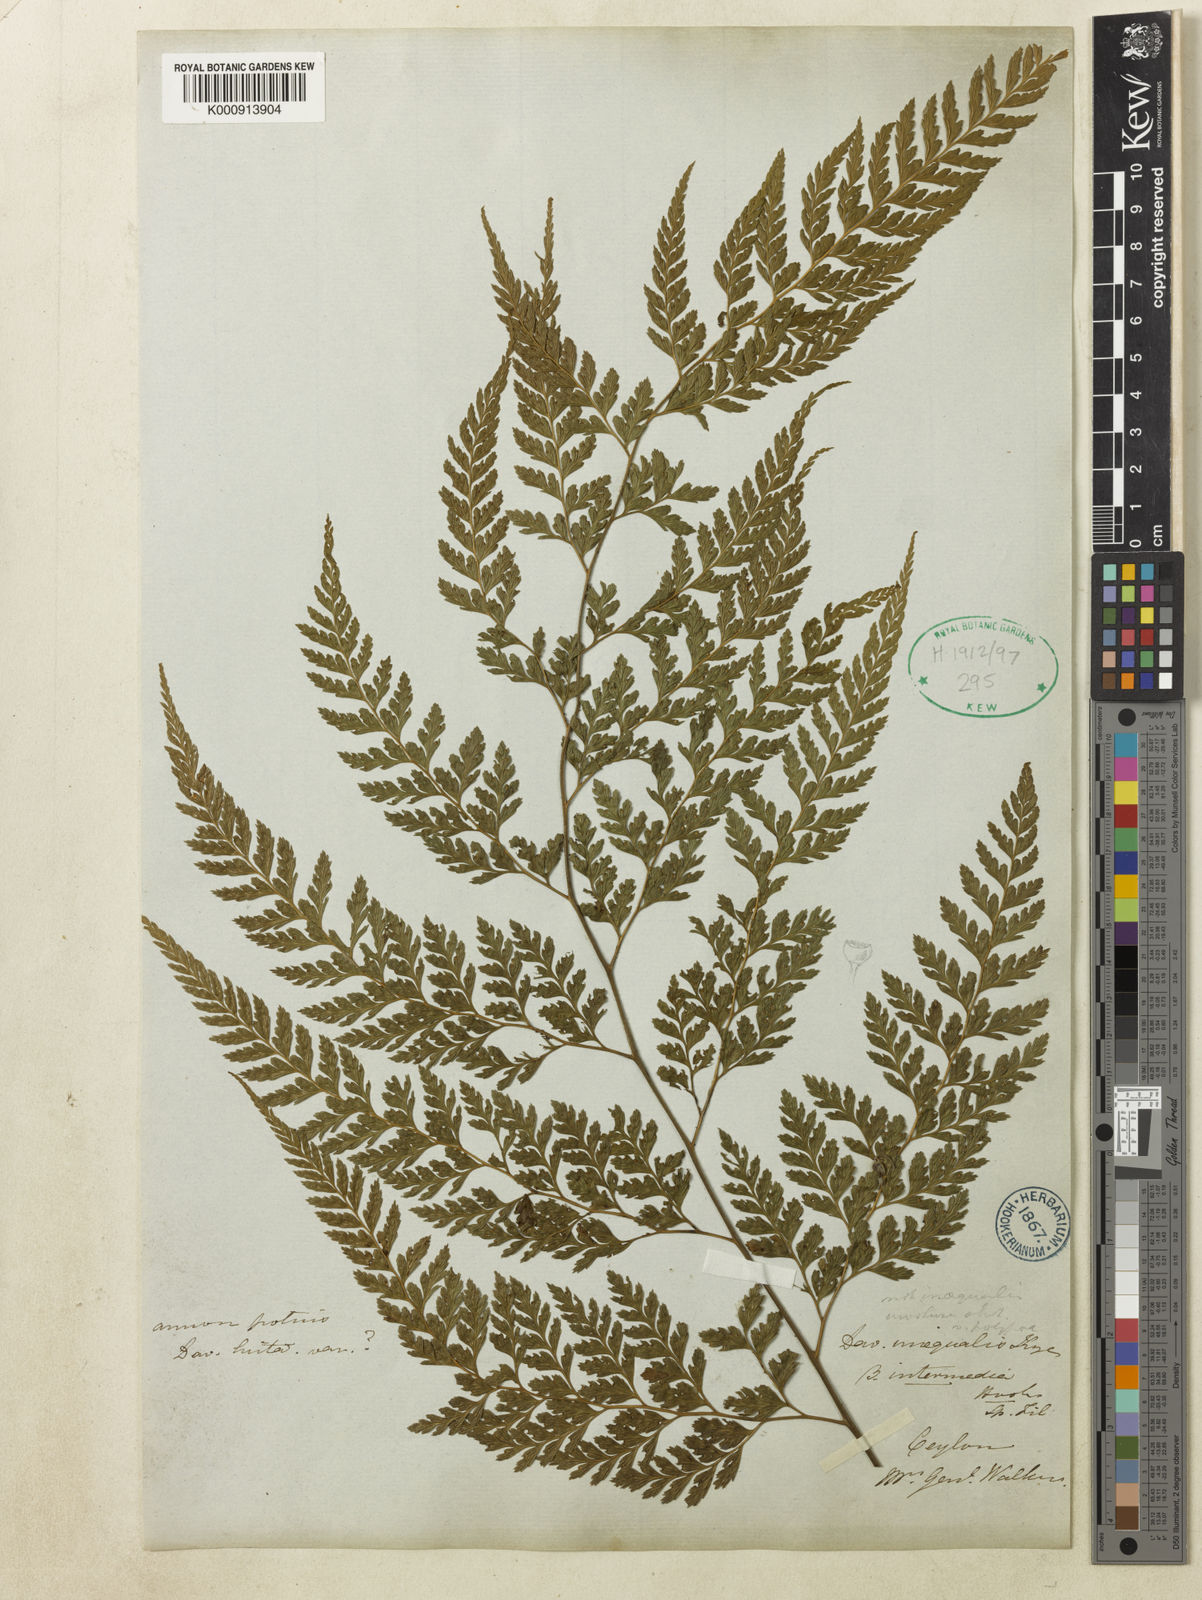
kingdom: Plantae
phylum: Tracheophyta
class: Polypodiopsida
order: Polypodiales
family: Dennstaedtiaceae
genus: Microlepia
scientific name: Microlepia firma
